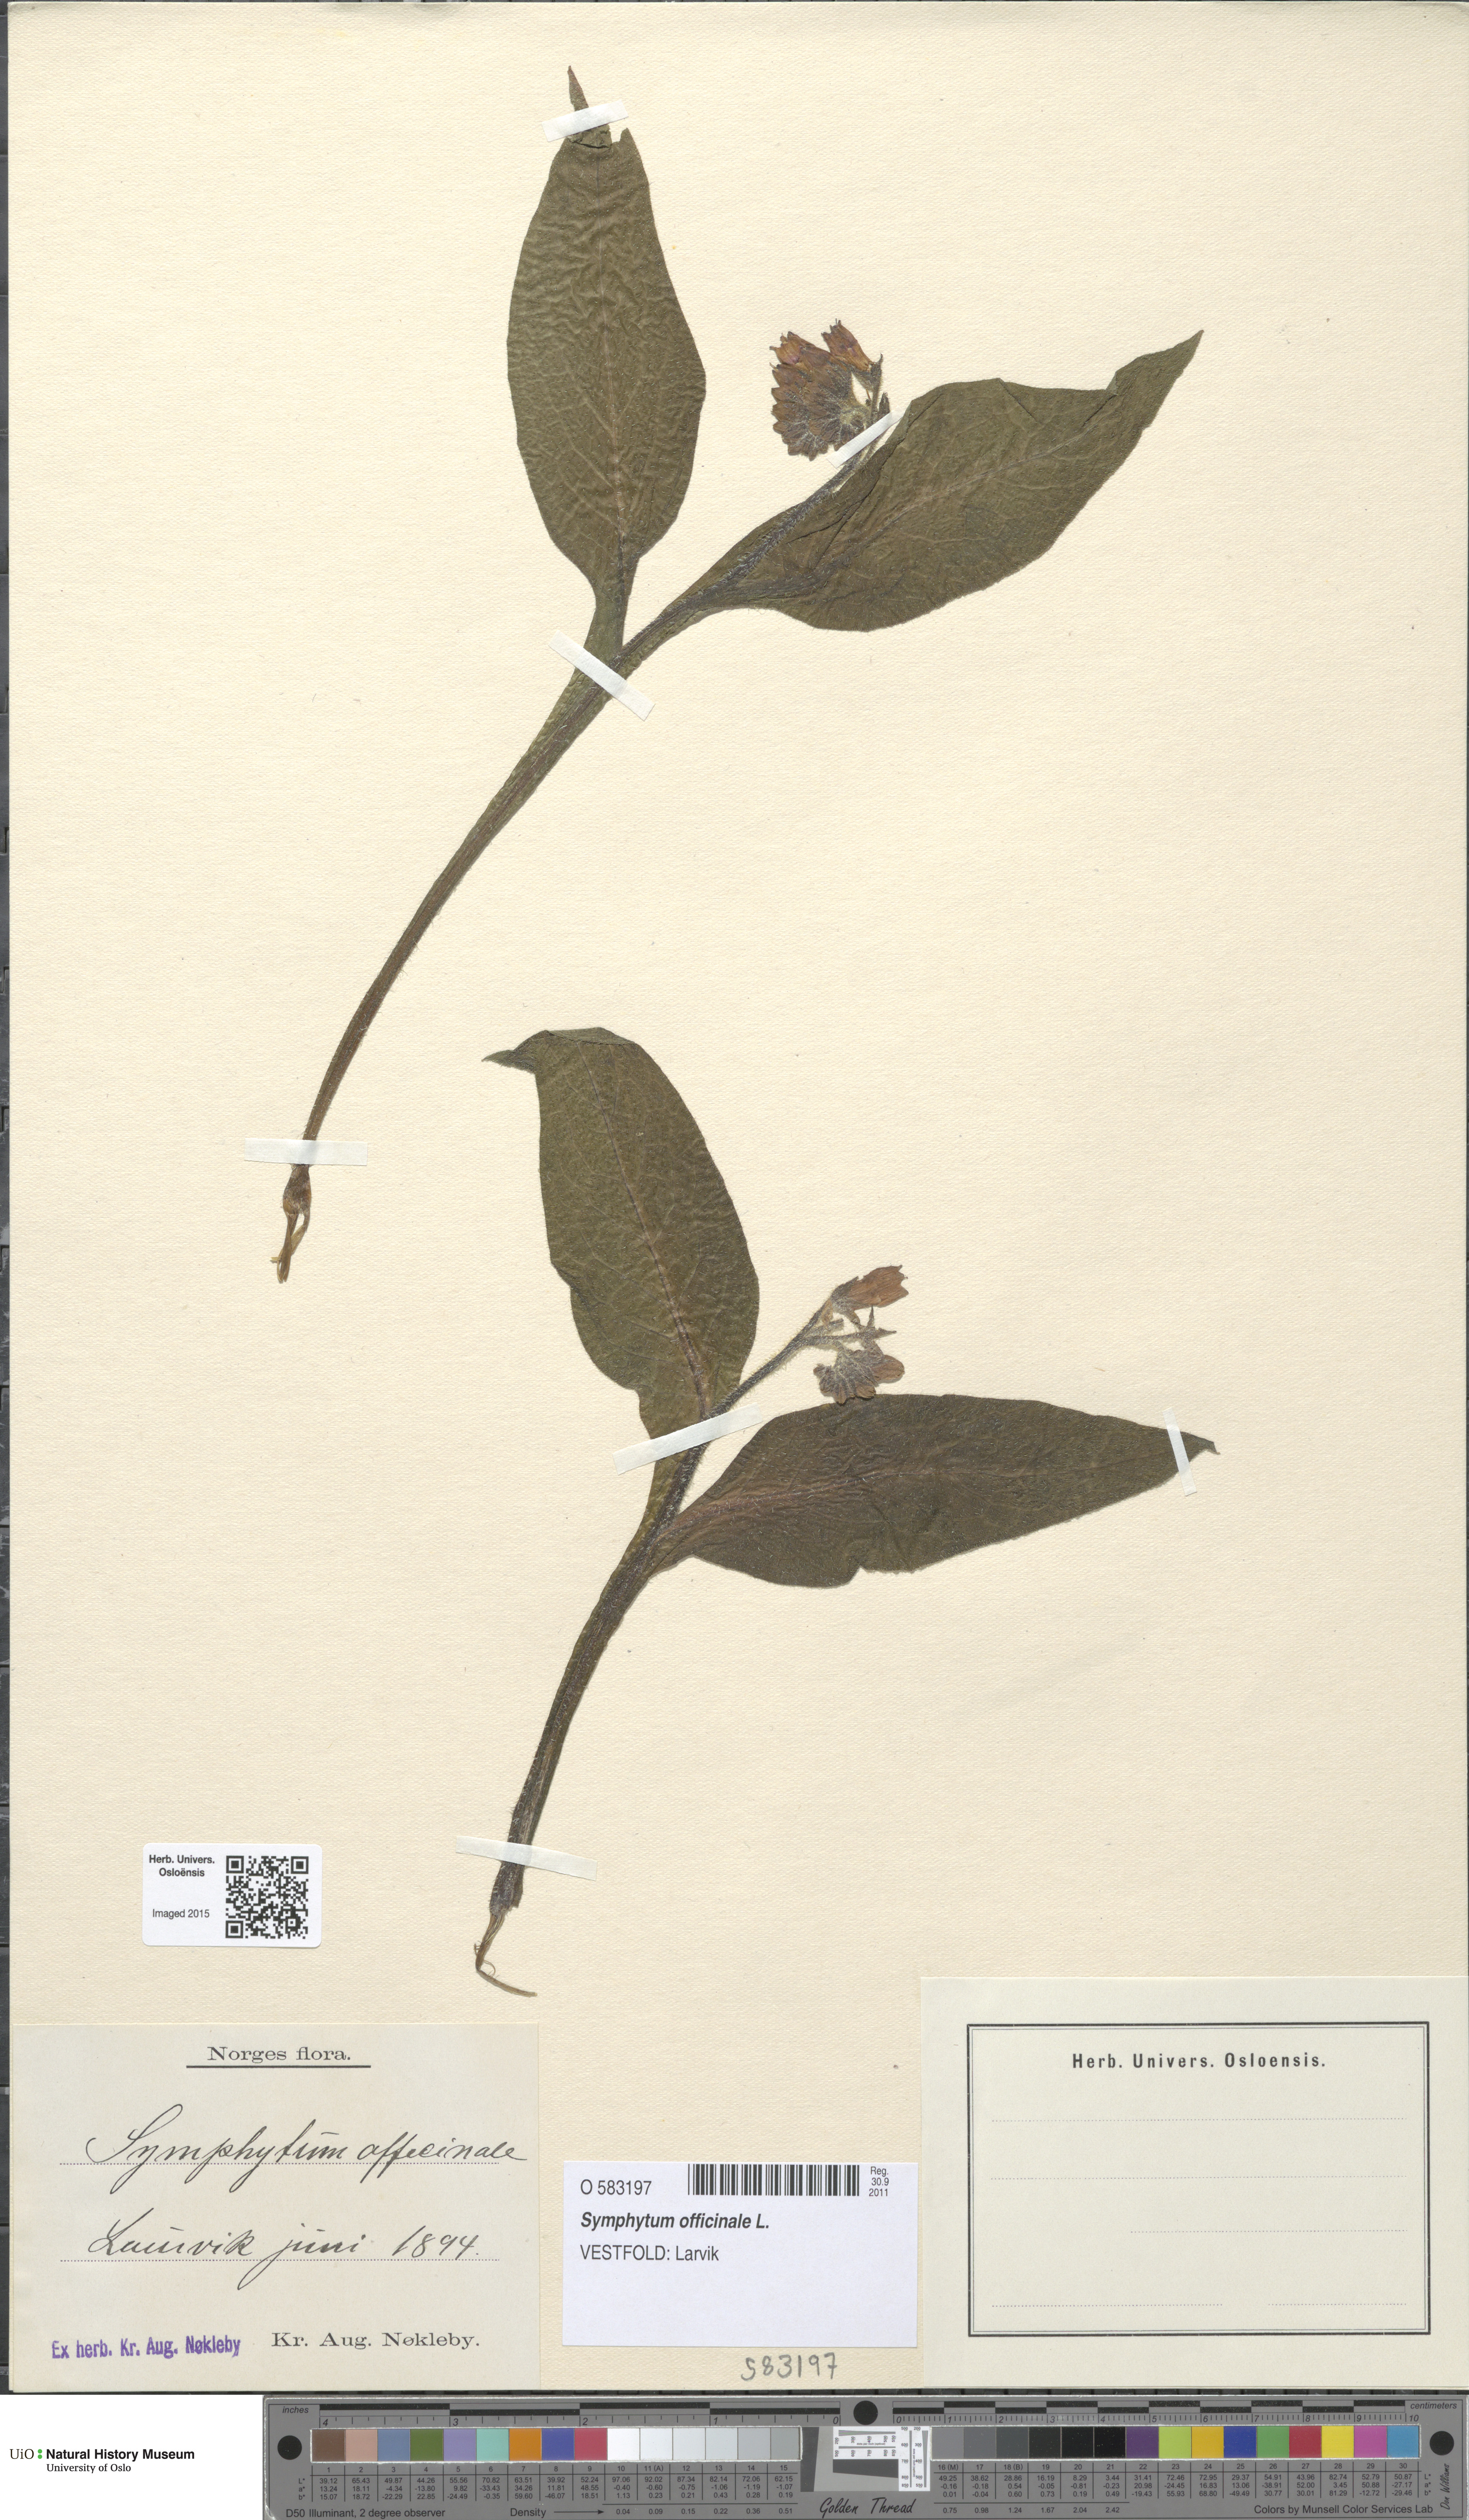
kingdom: Plantae
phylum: Tracheophyta
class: Magnoliopsida
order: Boraginales
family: Boraginaceae
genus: Symphytum
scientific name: Symphytum officinale
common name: Common comfrey
